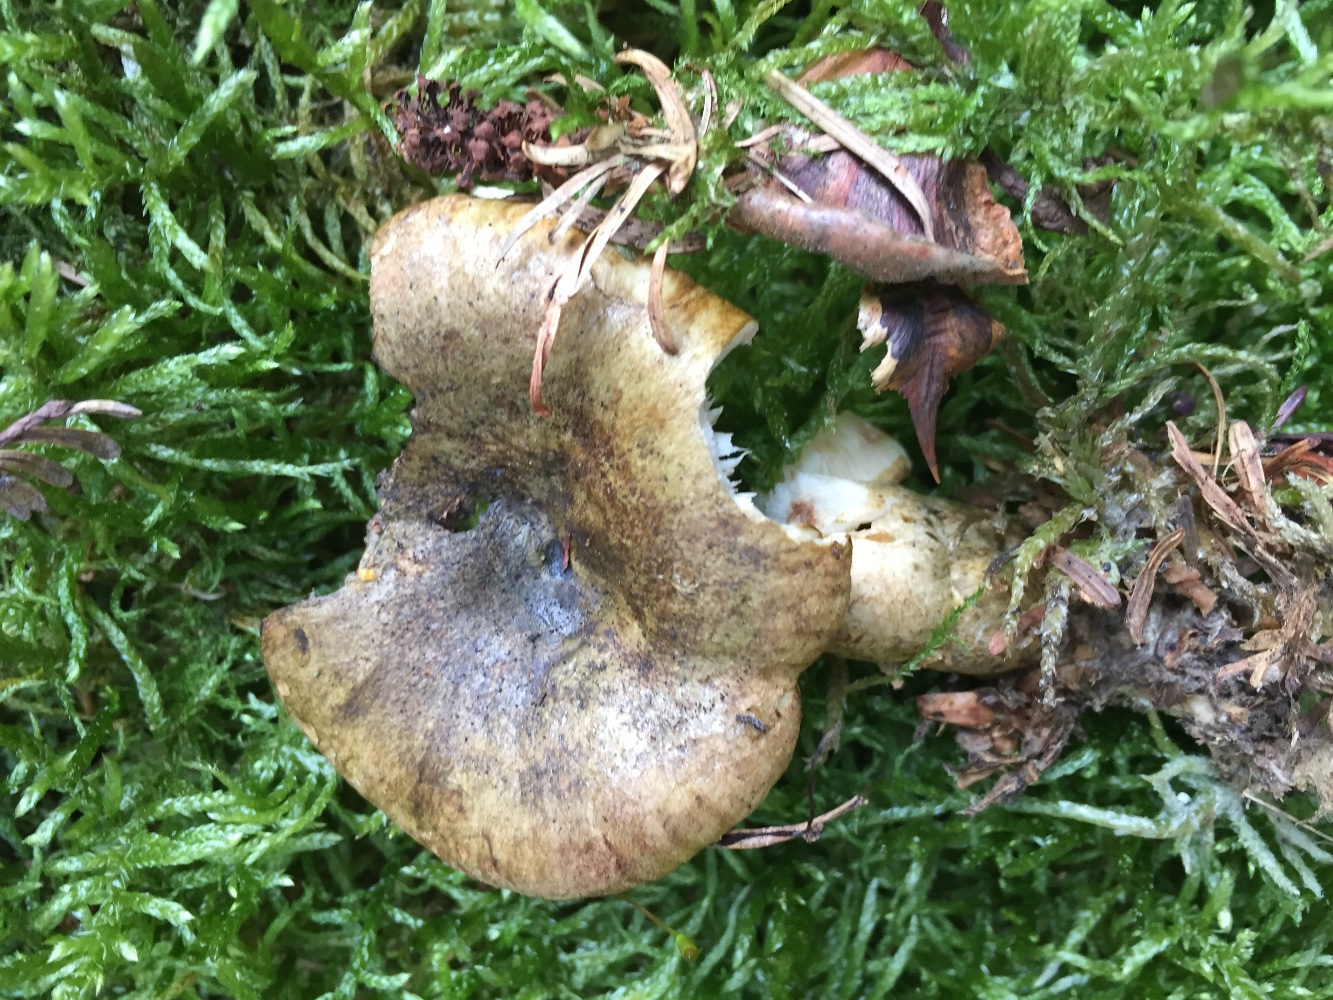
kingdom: Fungi
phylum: Basidiomycota
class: Agaricomycetes
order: Russulales
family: Russulaceae
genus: Lactarius
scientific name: Lactarius necator
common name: manddraber-mælkehat
